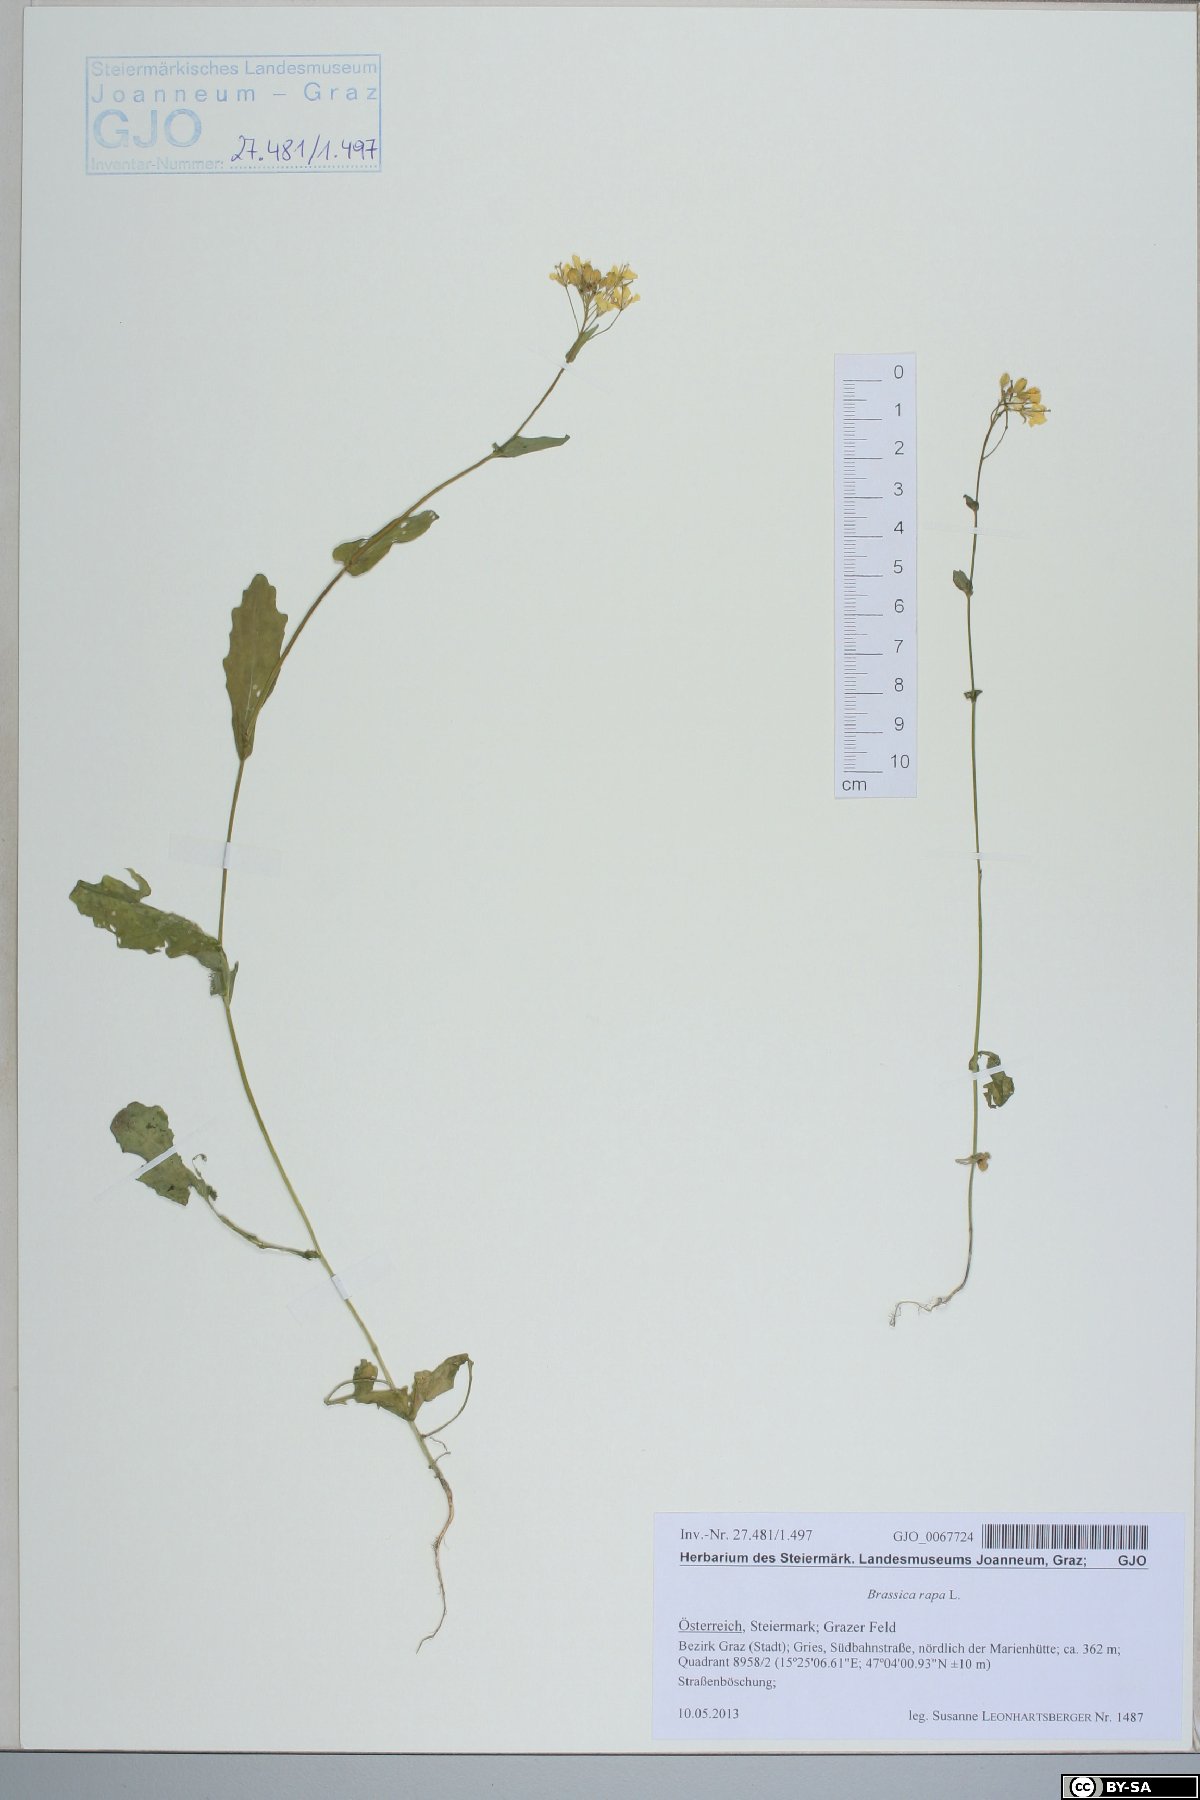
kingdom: Plantae
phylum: Tracheophyta
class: Magnoliopsida
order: Brassicales
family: Brassicaceae
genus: Brassica
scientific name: Brassica rapa
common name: Field mustard
